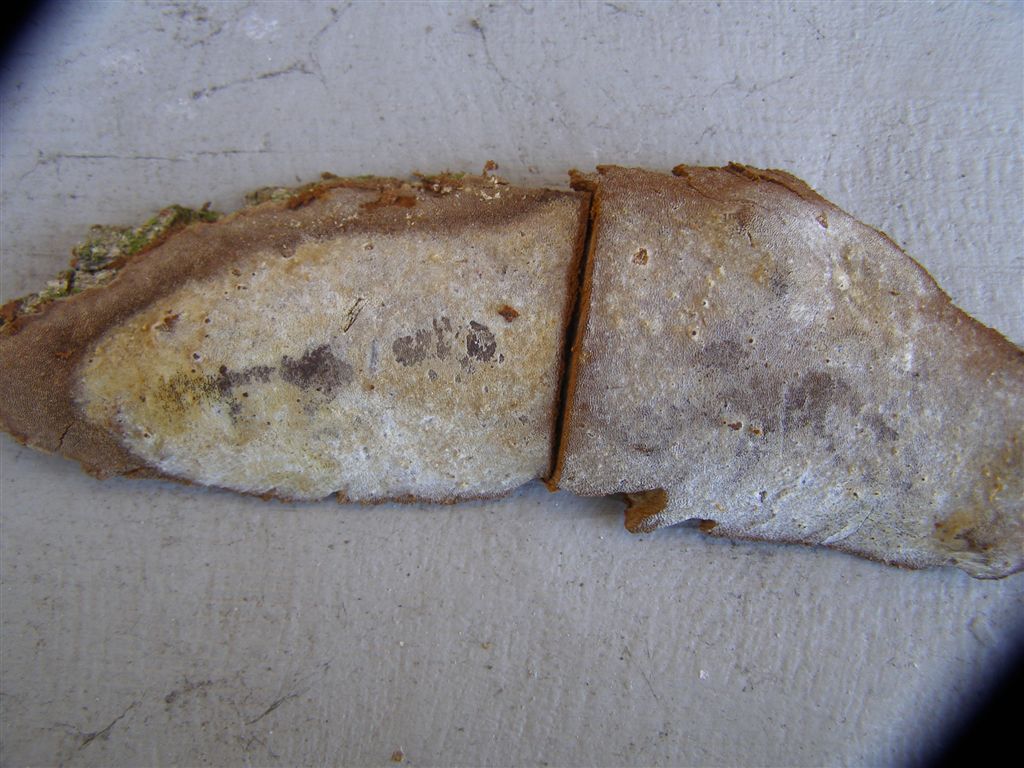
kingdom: Fungi
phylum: Basidiomycota
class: Agaricomycetes
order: Hymenochaetales
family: Hymenochaetaceae
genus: Fomitiporia
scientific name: Fomitiporia punctata
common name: pude-ildporesvamp
